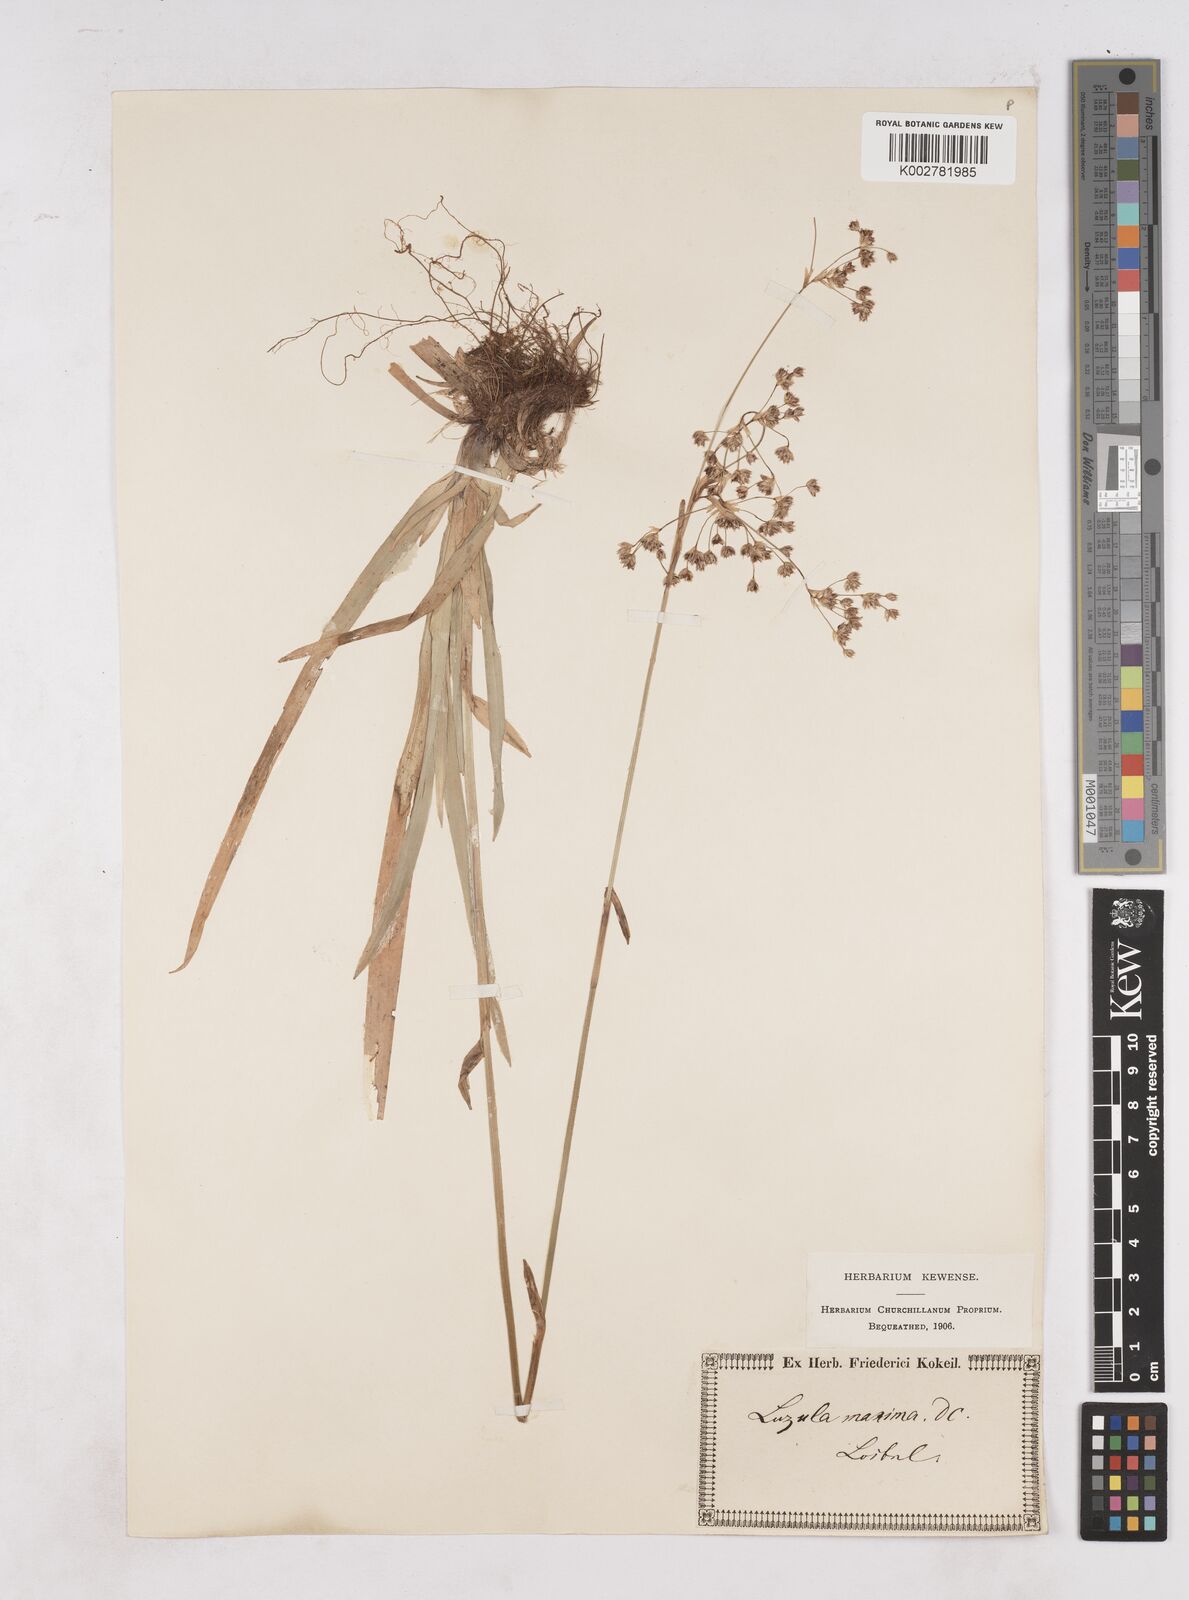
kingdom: Plantae
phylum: Tracheophyta
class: Liliopsida
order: Poales
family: Juncaceae
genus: Luzula
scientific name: Luzula sylvatica
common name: Great wood-rush
